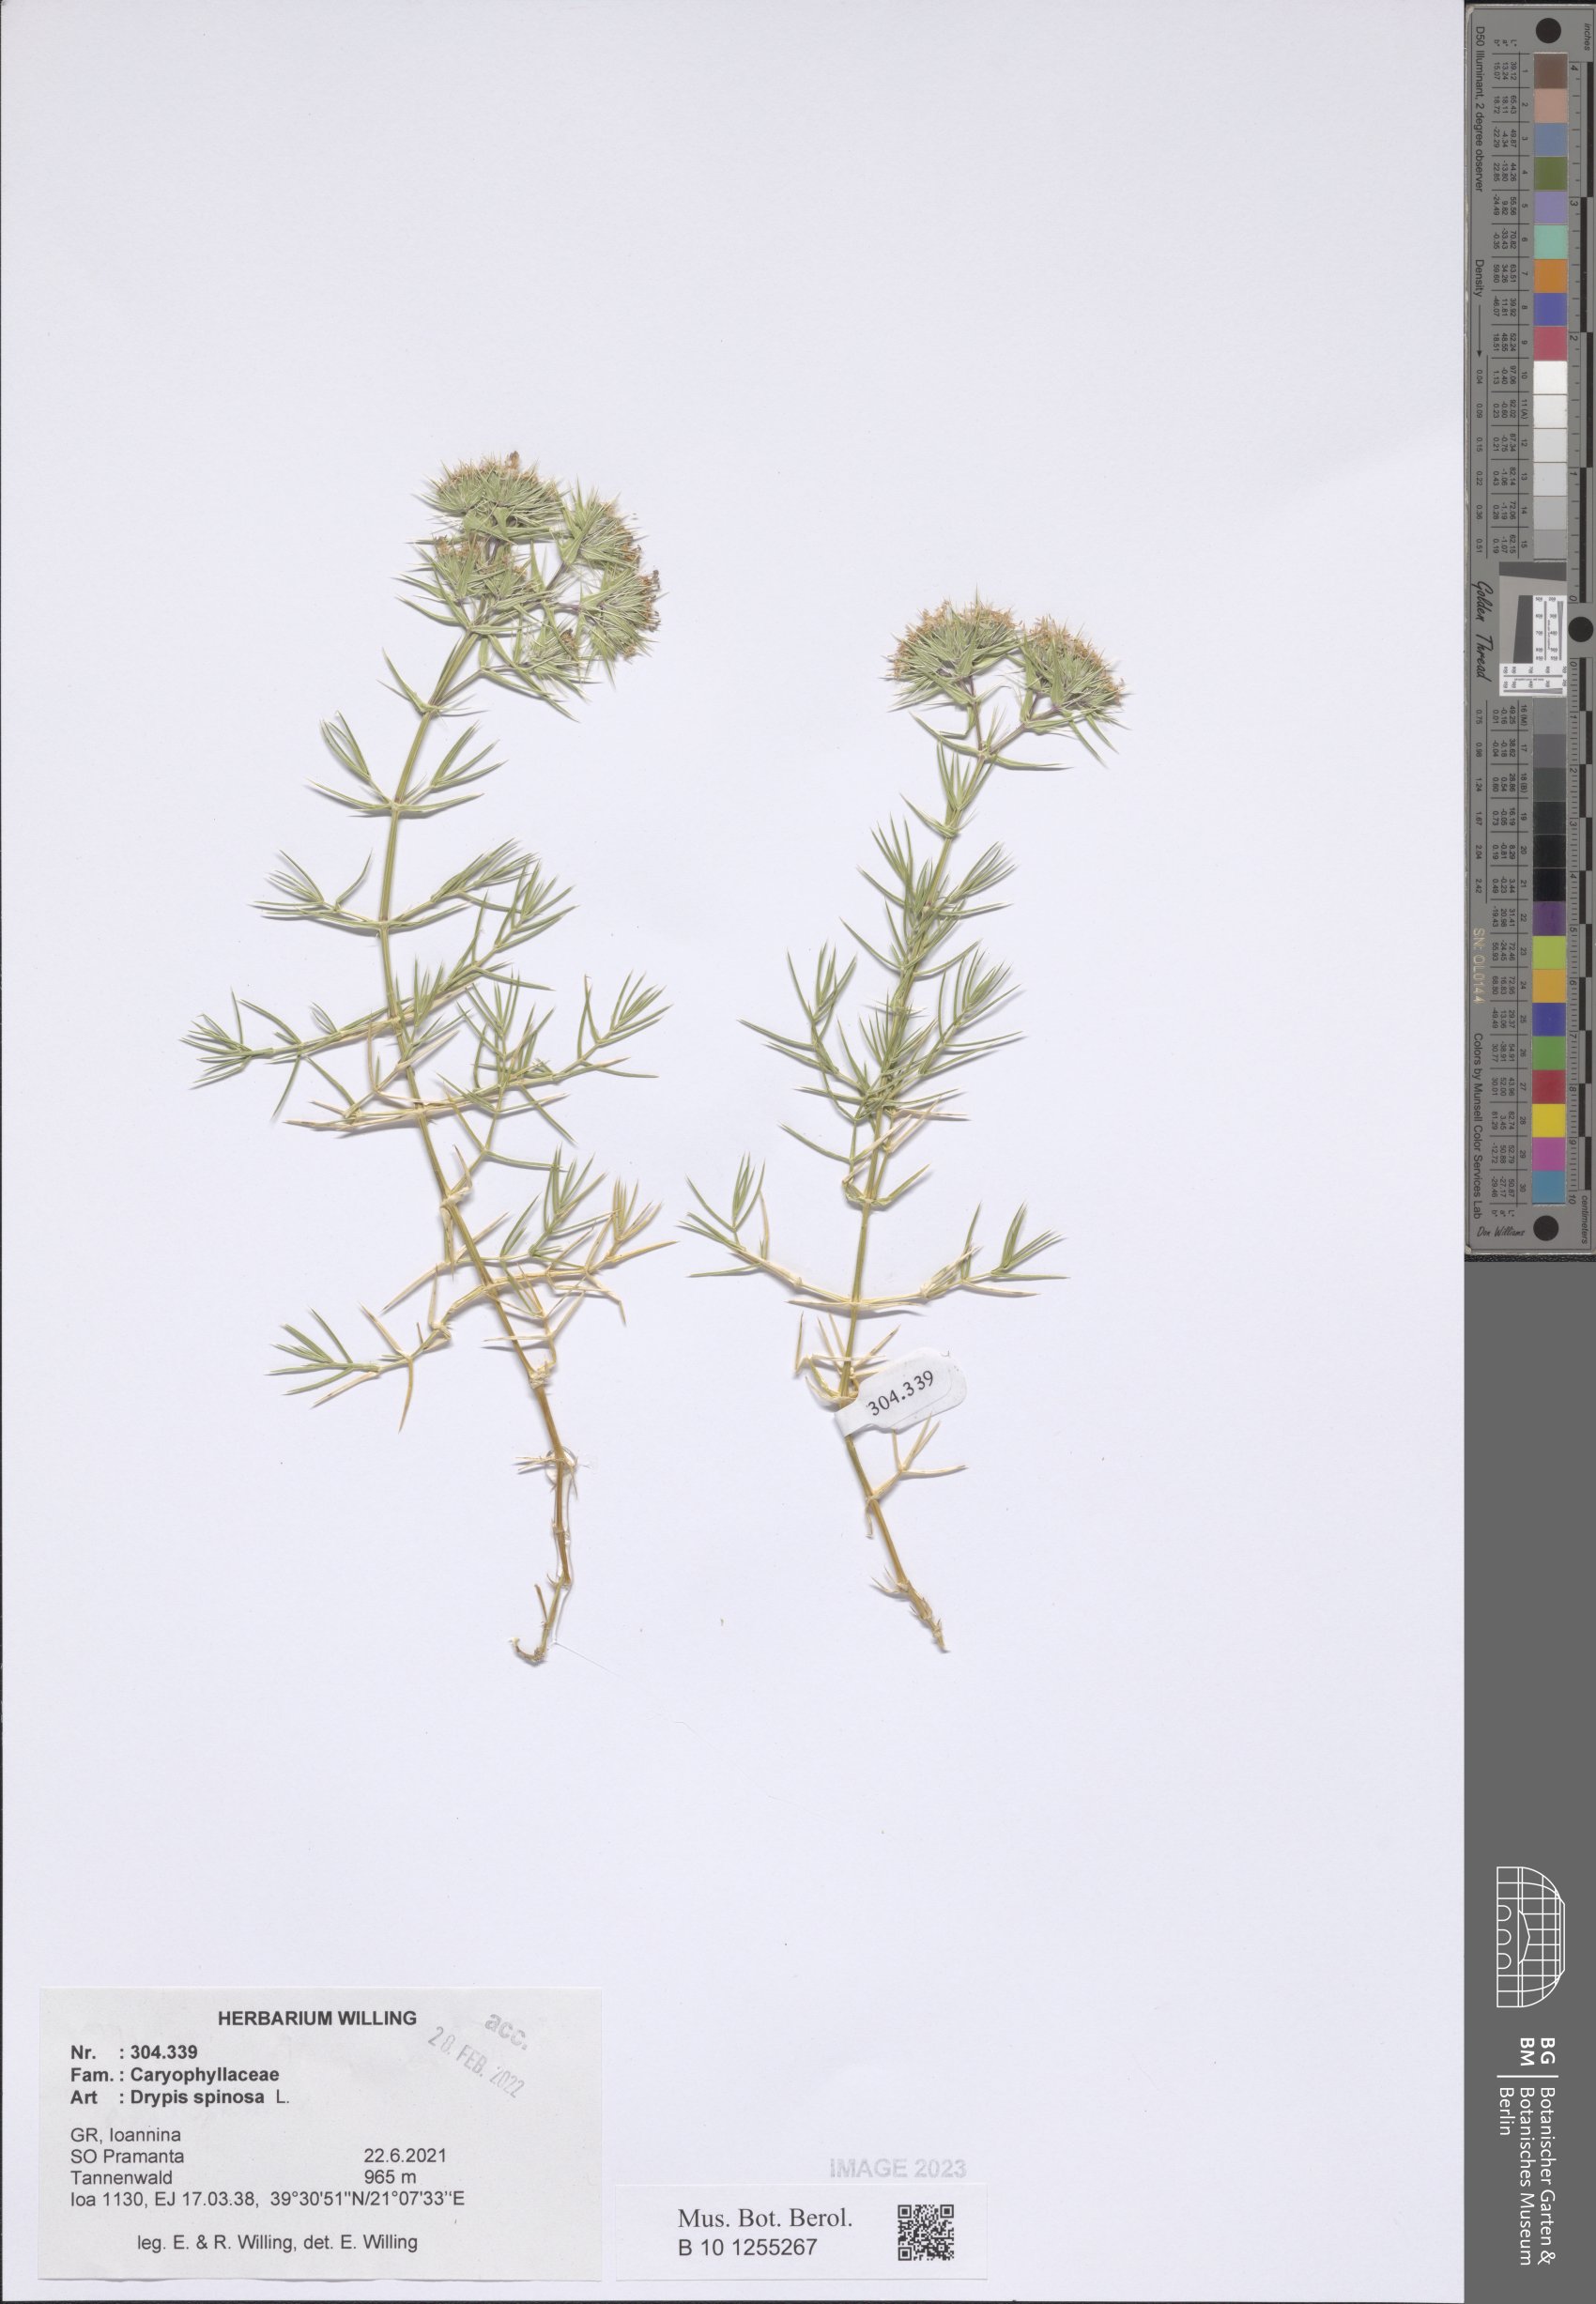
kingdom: Plantae
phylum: Tracheophyta
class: Magnoliopsida
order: Caryophyllales
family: Caryophyllaceae
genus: Drypis
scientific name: Drypis spinosa
